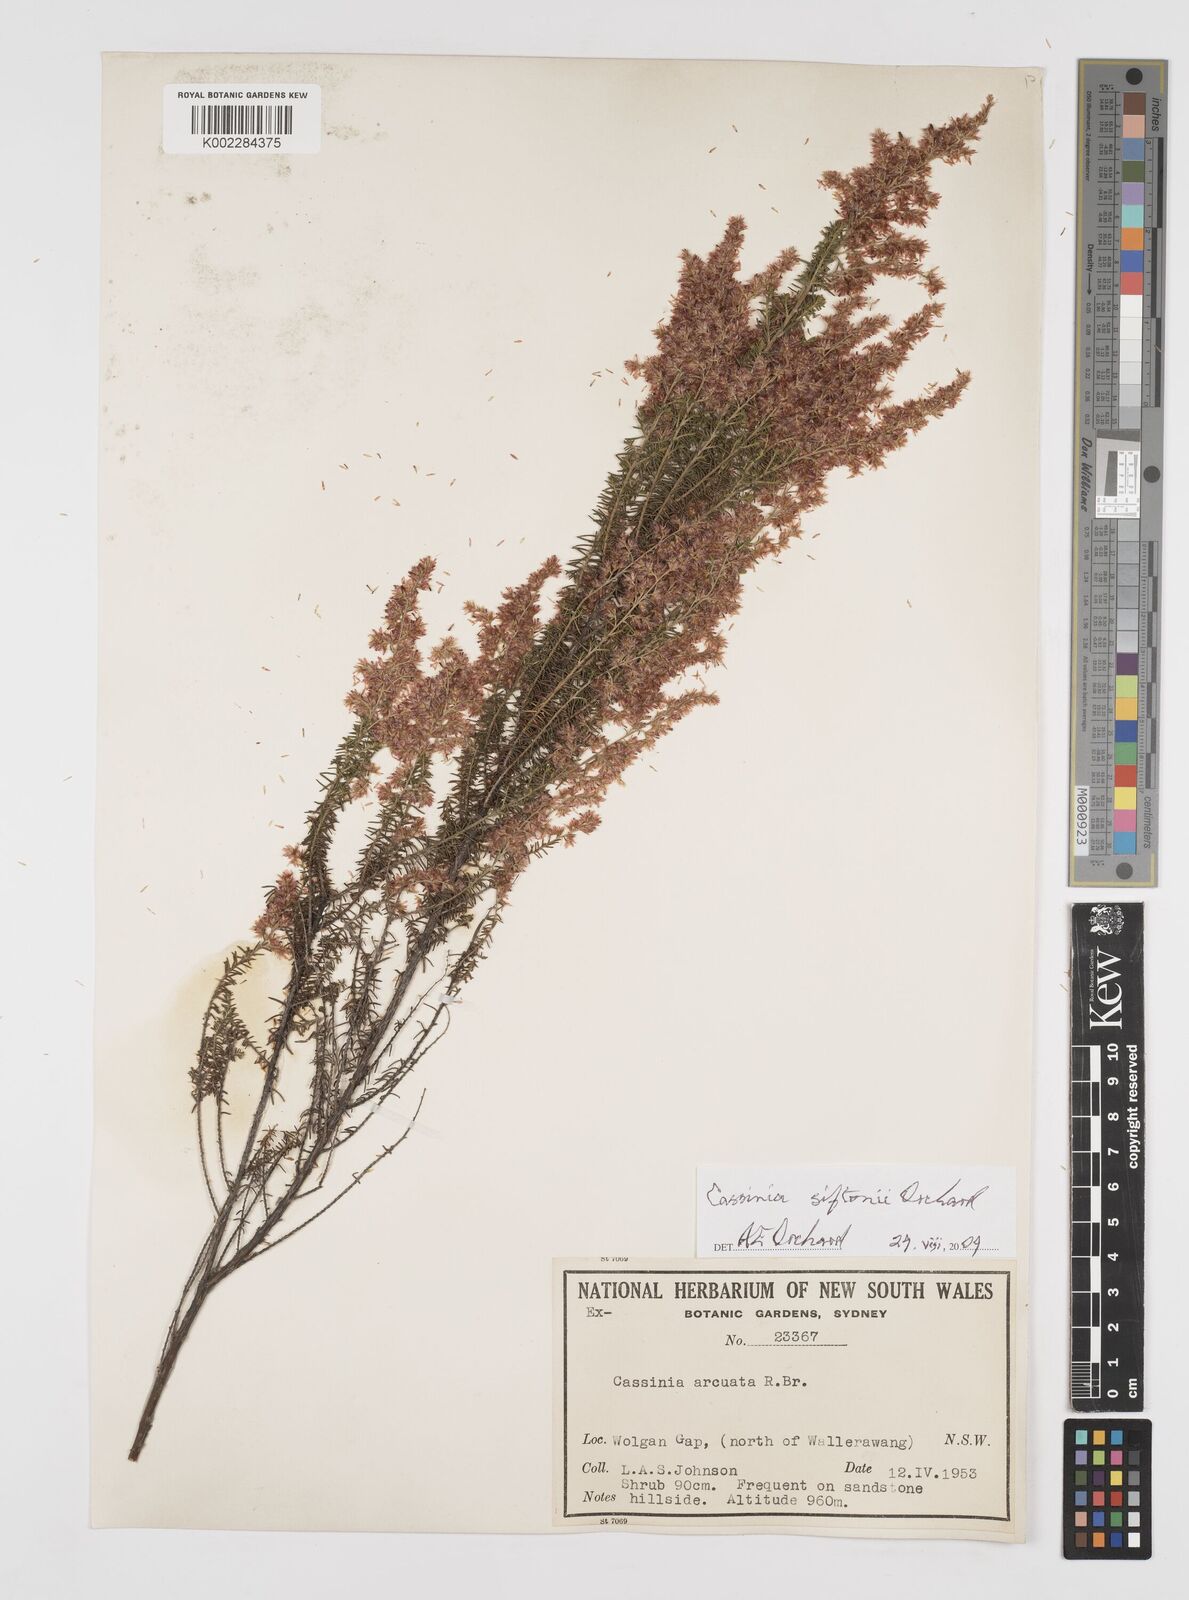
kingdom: Plantae
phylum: Tracheophyta
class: Magnoliopsida
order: Asterales
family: Asteraceae
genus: Cassinia
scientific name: Cassinia arcuata
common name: Chineseshrub
